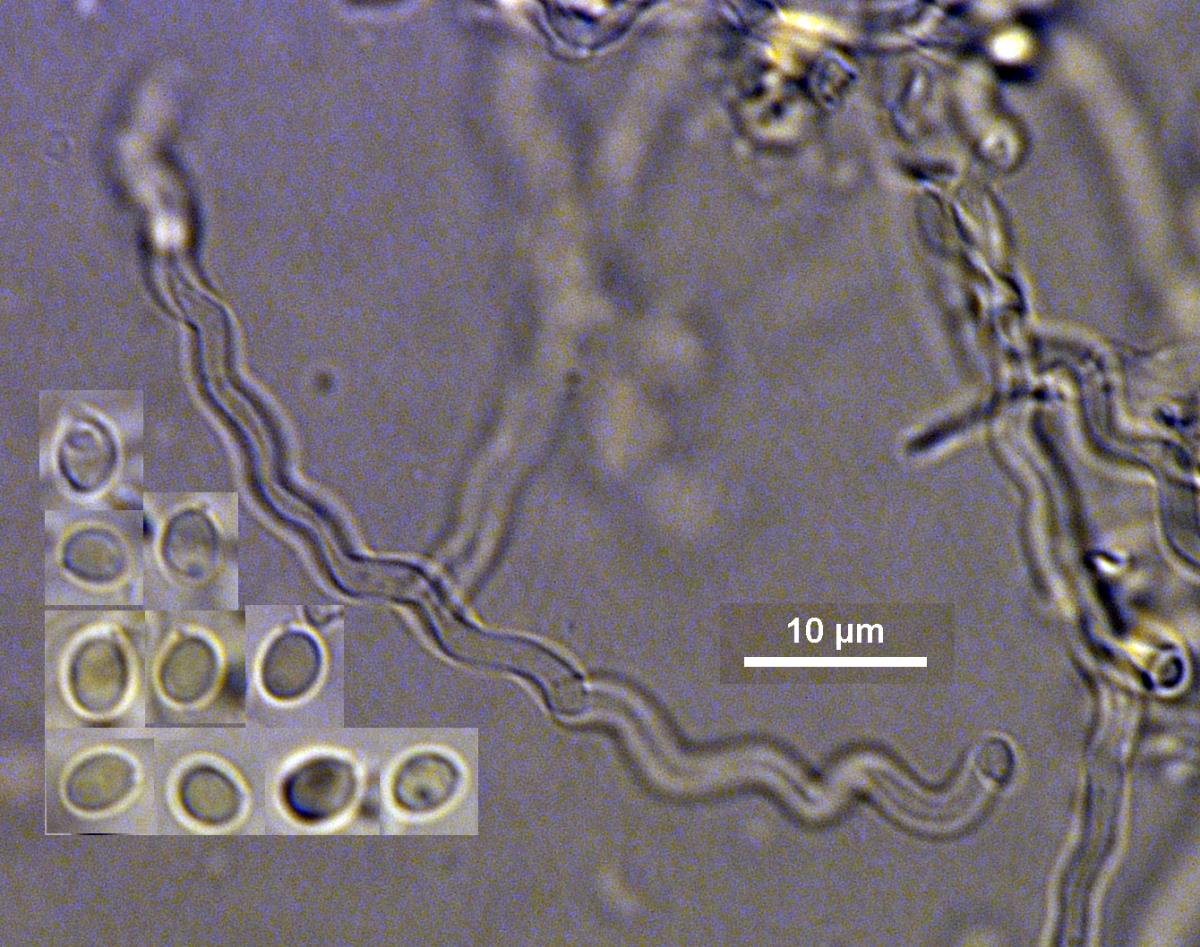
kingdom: Fungi
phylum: Basidiomycota
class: Agaricomycetes
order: Agaricales
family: Marasmiaceae
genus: Rectipilus
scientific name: Rectipilus natalensis
